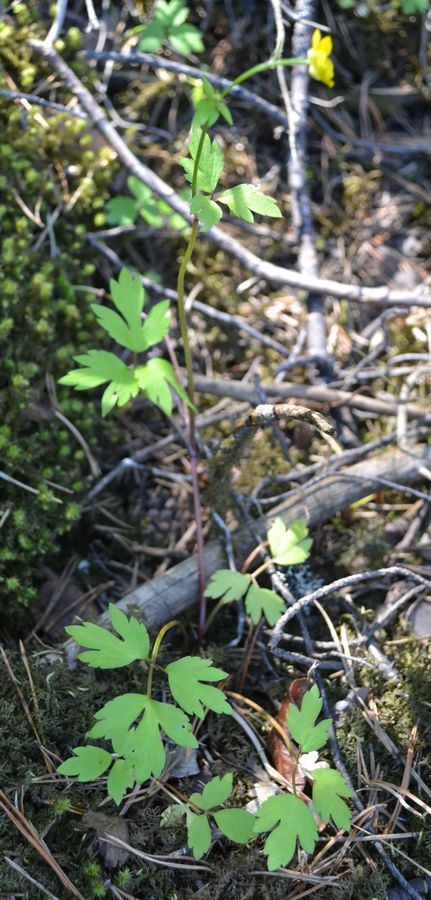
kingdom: Plantae
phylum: Tracheophyta
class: Magnoliopsida
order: Ranunculales
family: Ranunculaceae
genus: Ranunculus
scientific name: Ranunculus repens
